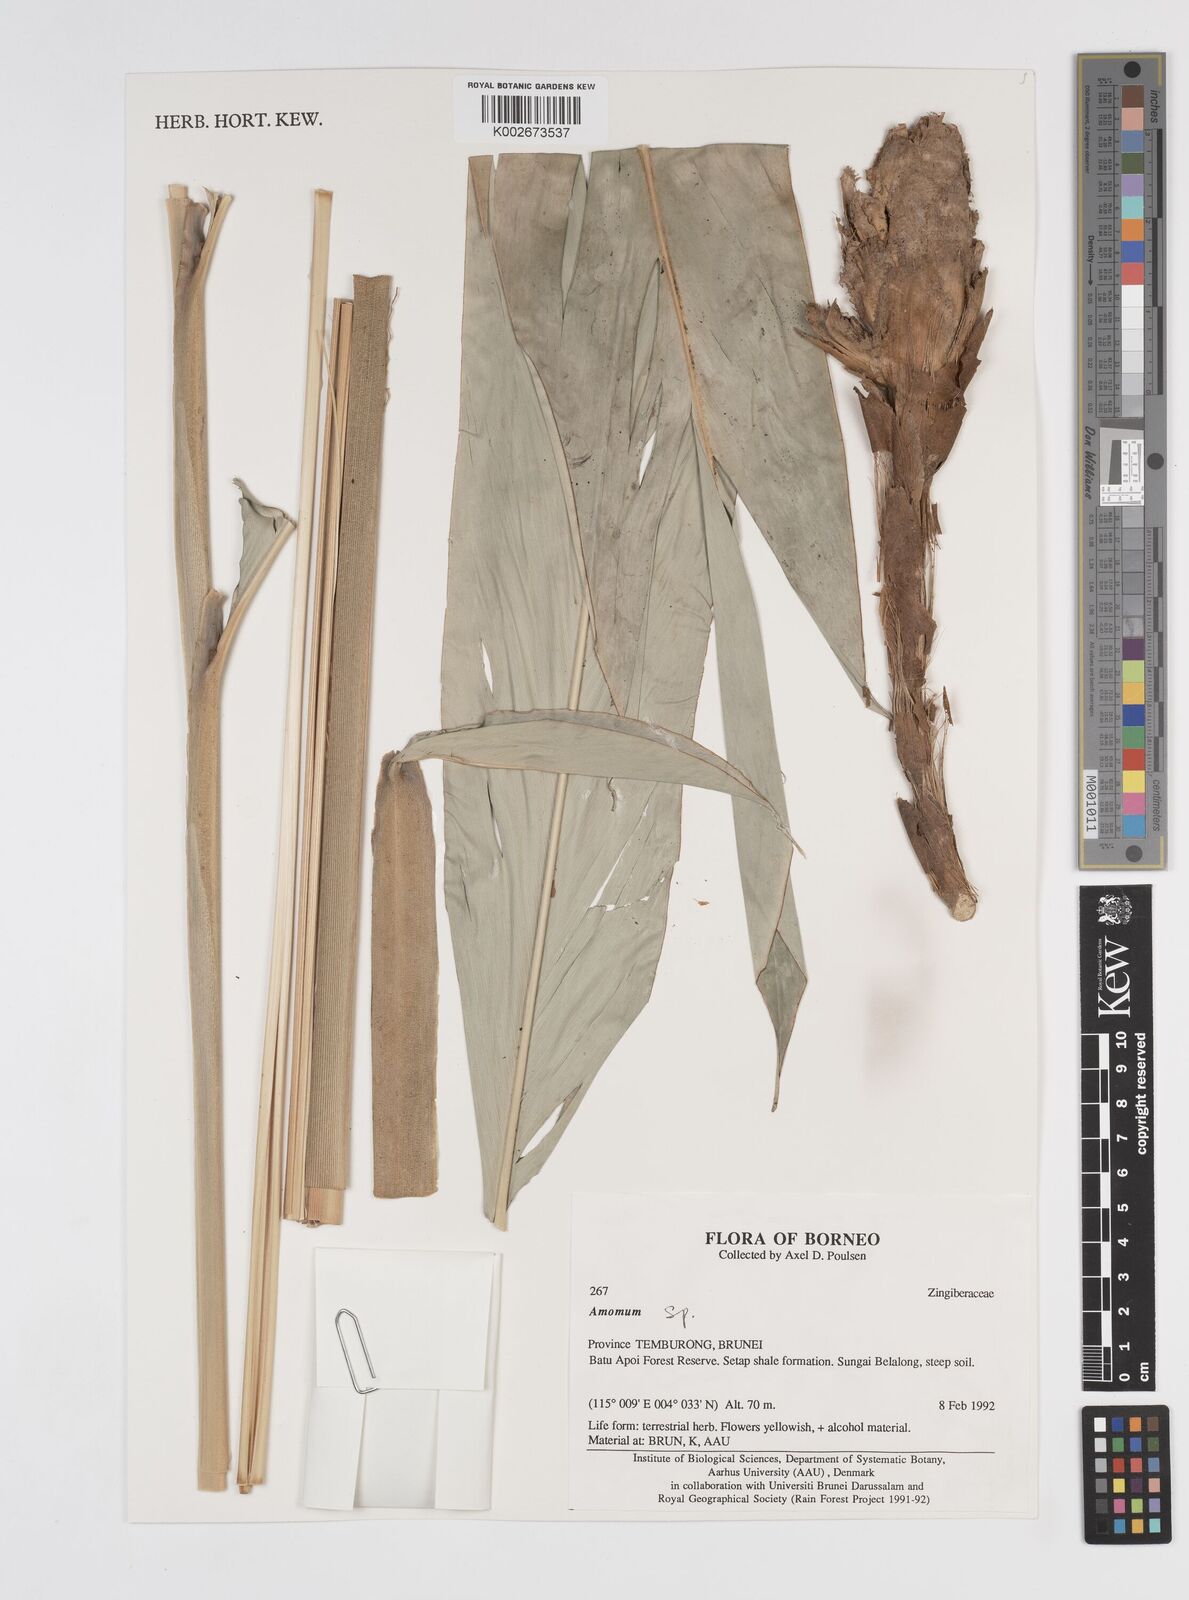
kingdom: Plantae
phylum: Tracheophyta
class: Liliopsida
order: Zingiberales
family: Zingiberaceae
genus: Amomum
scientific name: Amomum
